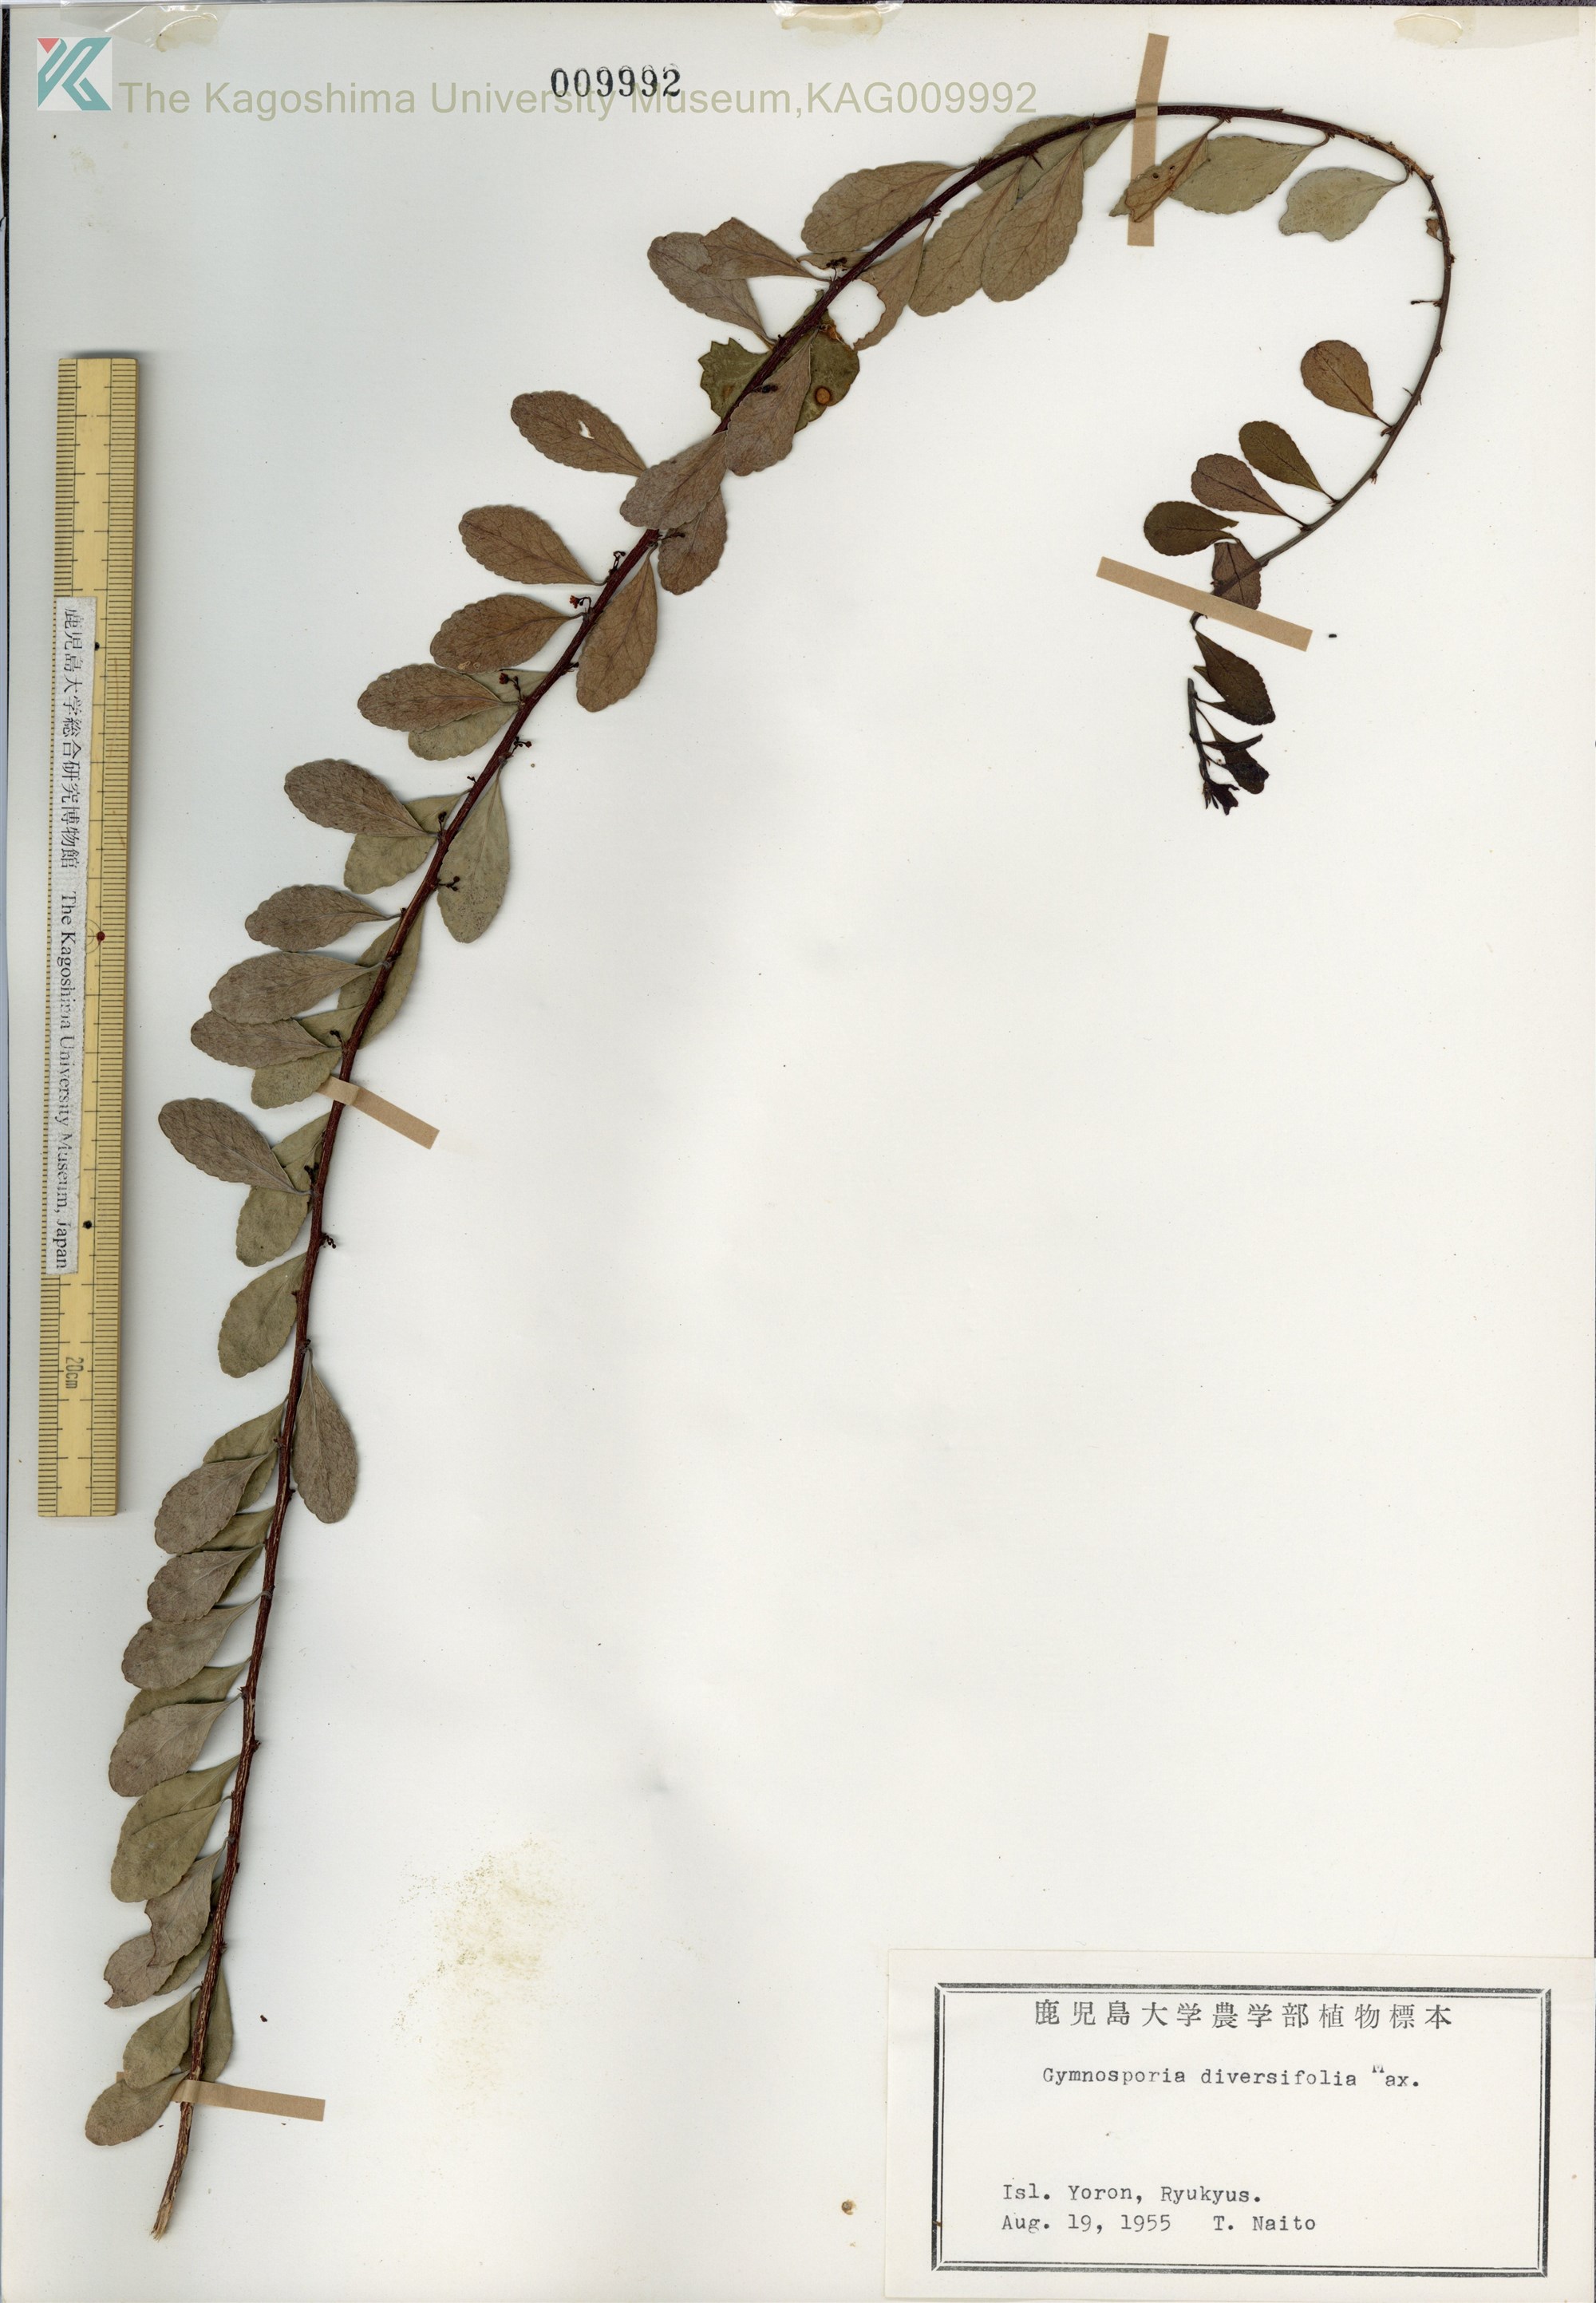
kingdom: Plantae
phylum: Tracheophyta
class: Magnoliopsida
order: Celastrales
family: Celastraceae
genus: Gymnosporia
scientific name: Gymnosporia diversifolia
